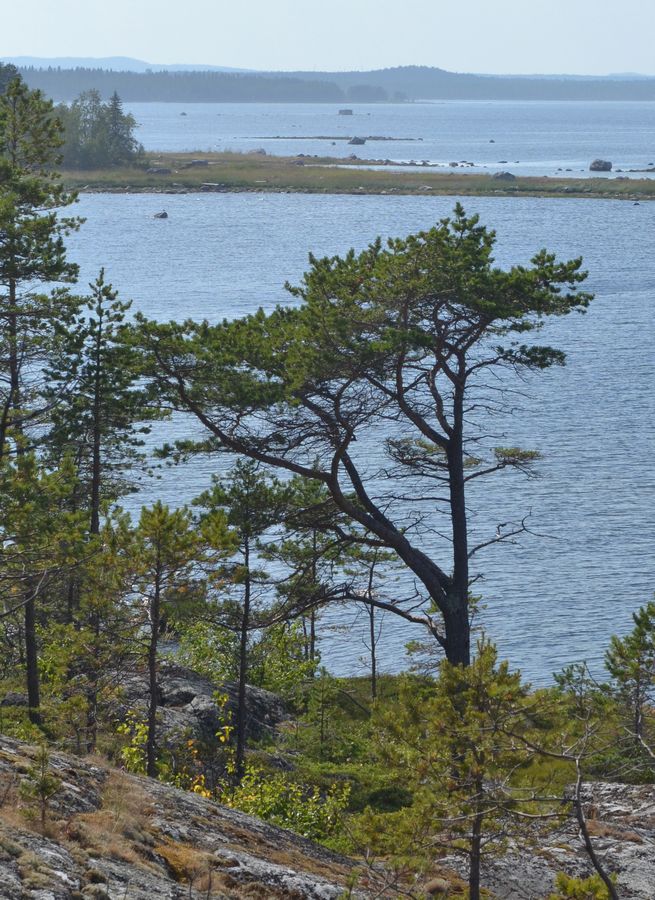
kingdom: Plantae
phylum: Tracheophyta
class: Pinopsida
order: Pinales
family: Pinaceae
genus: Pinus
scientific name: Pinus sylvestris
